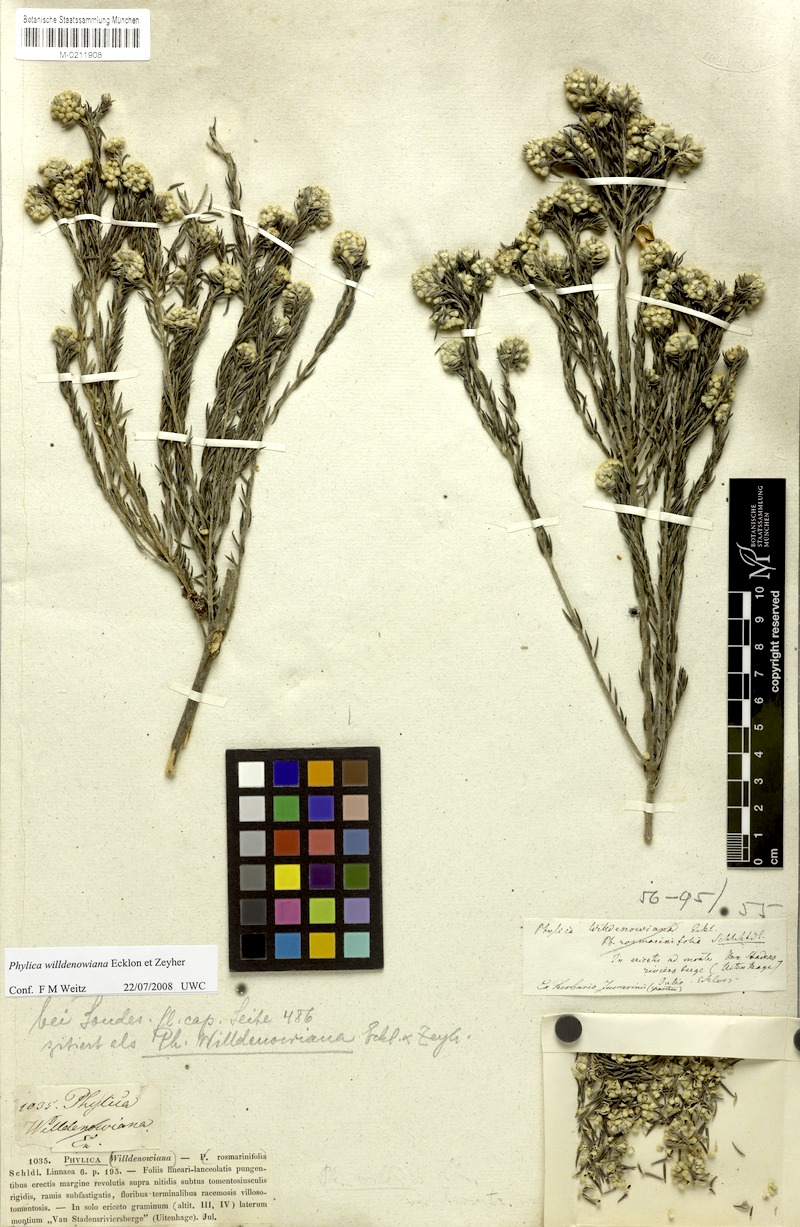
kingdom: Plantae
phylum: Tracheophyta
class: Magnoliopsida
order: Rosales
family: Rhamnaceae
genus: Phylica
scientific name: Phylica willdenowiana
